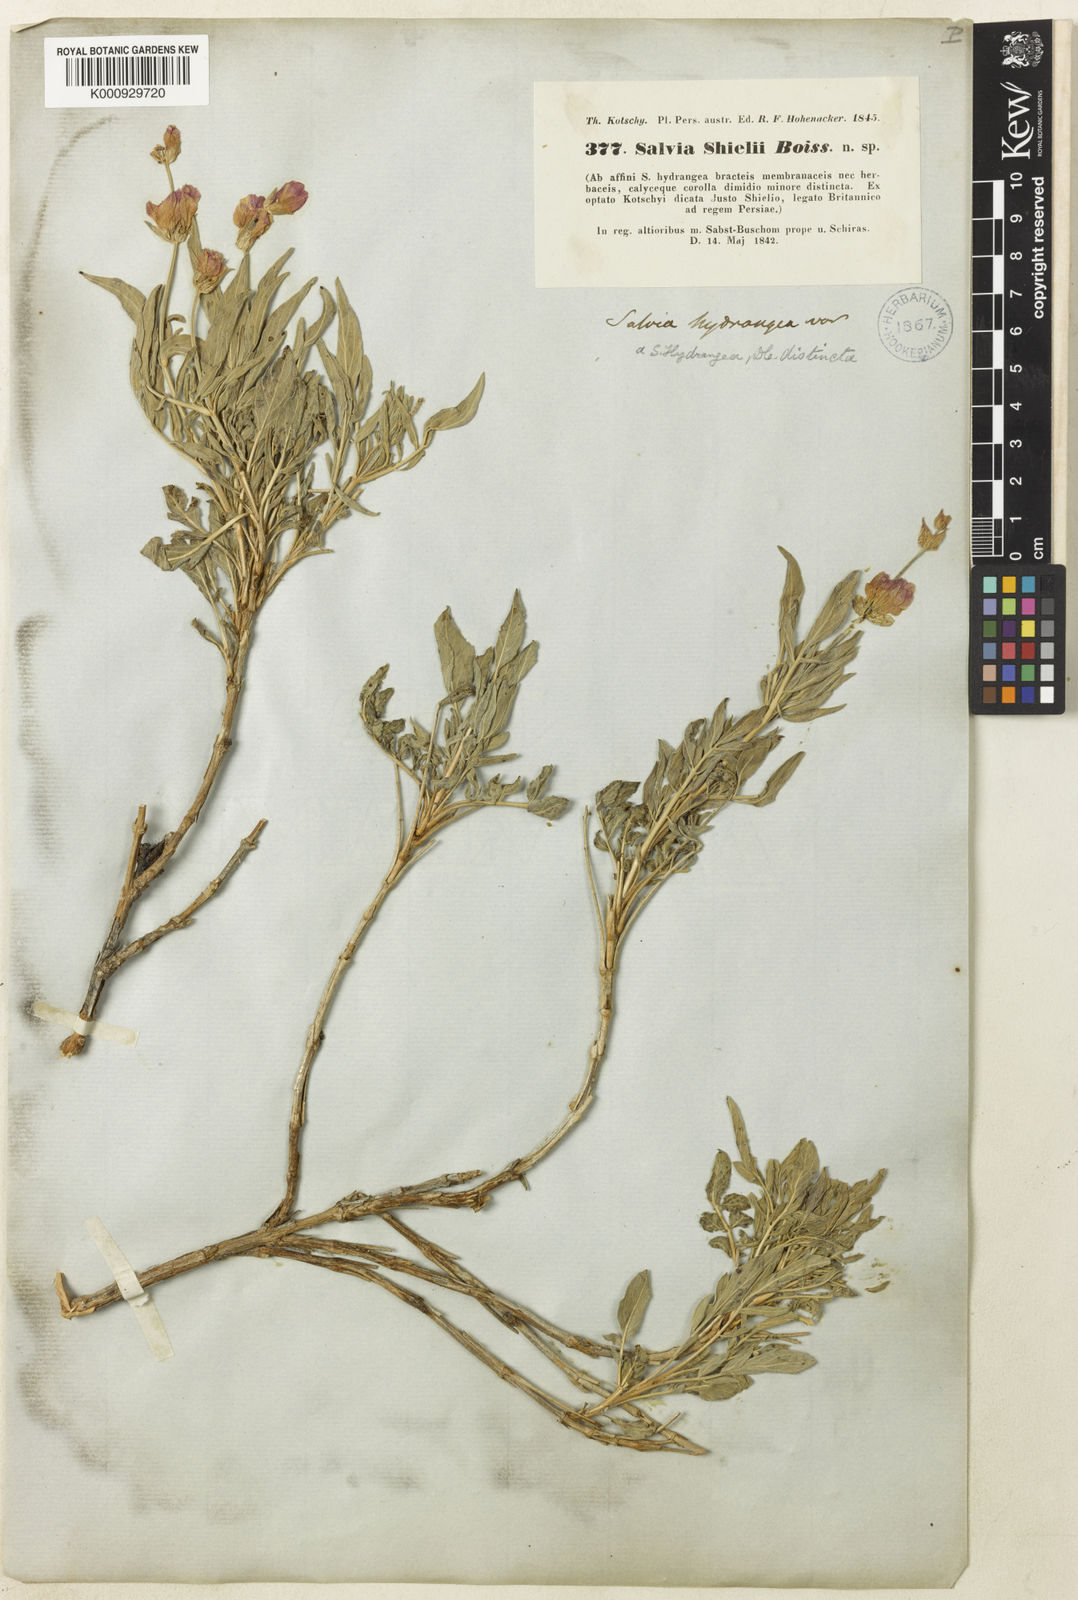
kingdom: Plantae
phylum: Tracheophyta
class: Magnoliopsida
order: Lamiales
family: Lamiaceae
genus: Salvia
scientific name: Salvia
